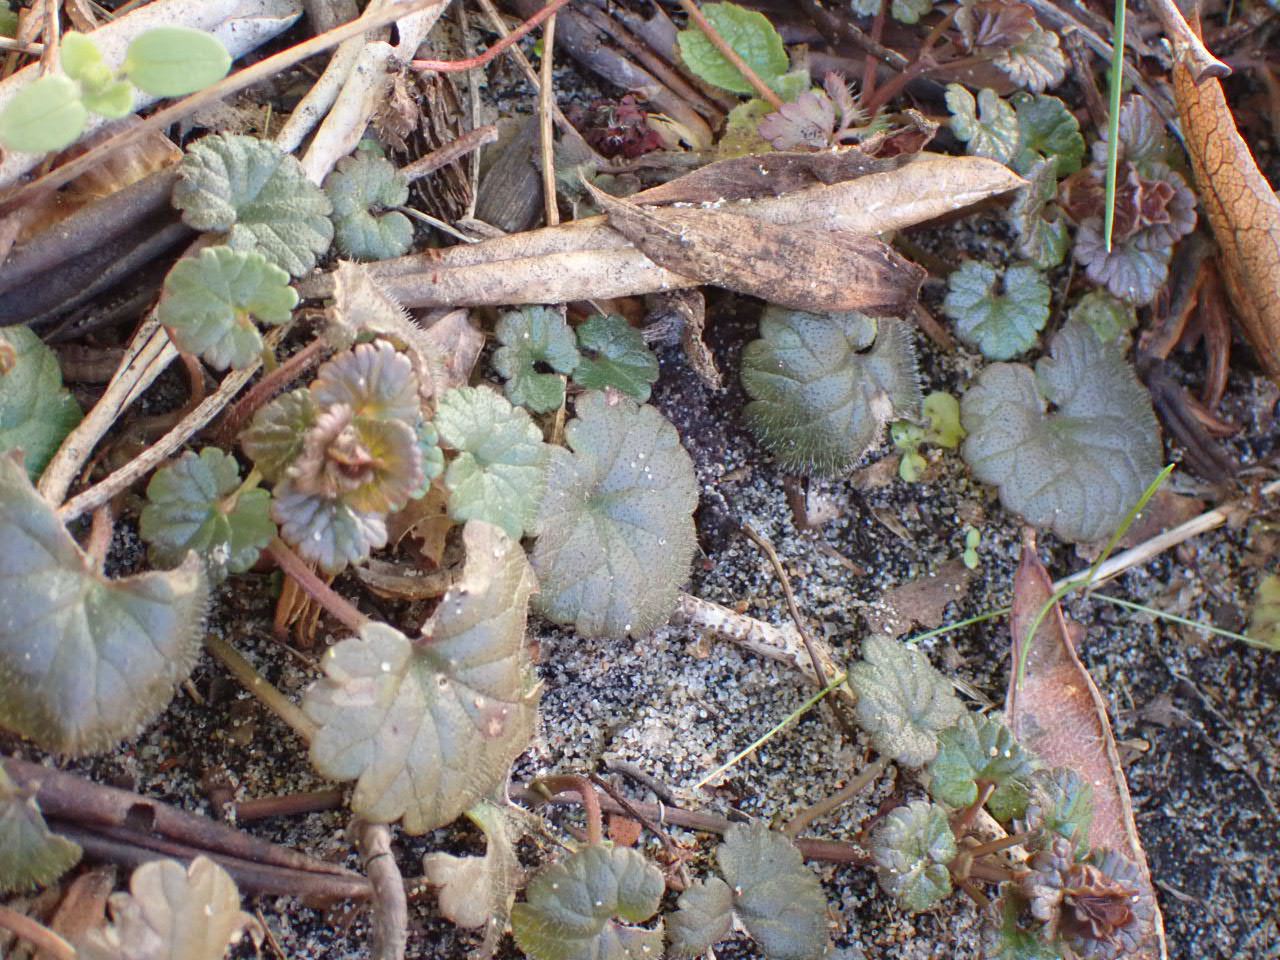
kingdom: Plantae
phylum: Tracheophyta
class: Magnoliopsida
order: Lamiales
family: Lamiaceae
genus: Glechoma
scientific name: Glechoma hederacea
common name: Korsknap
